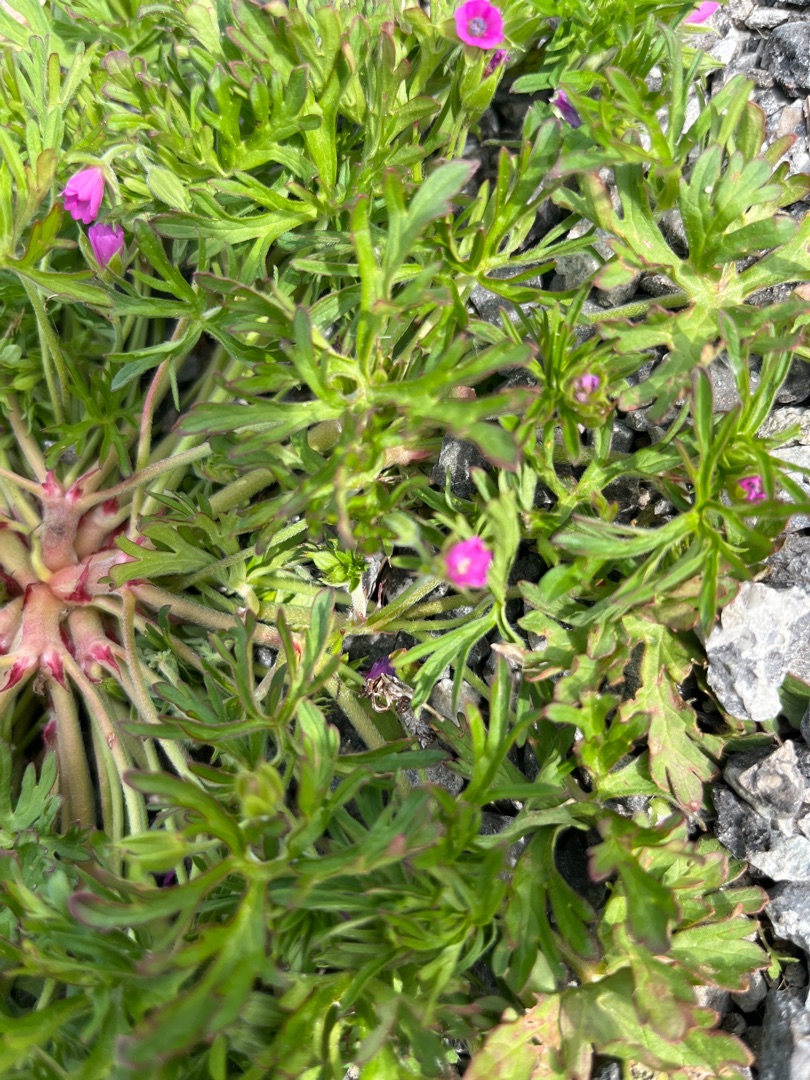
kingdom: Plantae
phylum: Tracheophyta
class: Magnoliopsida
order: Geraniales
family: Geraniaceae
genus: Geranium
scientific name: Geranium dissectum
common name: Kløftet storkenæb
